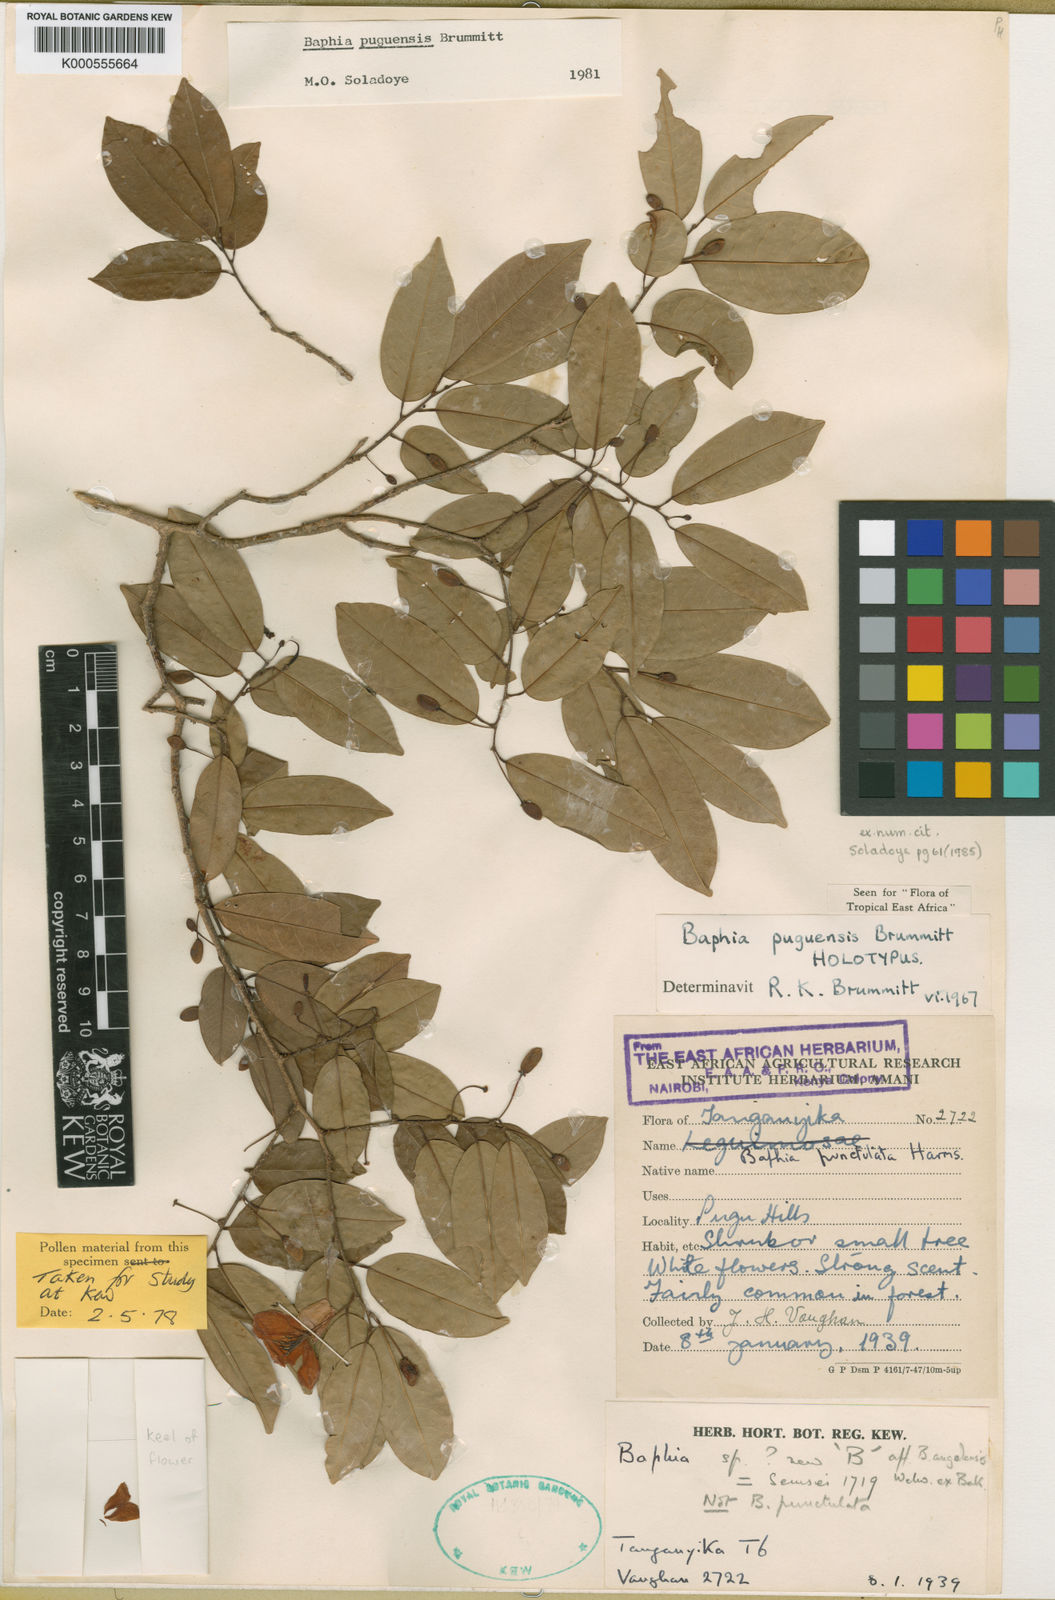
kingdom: Plantae
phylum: Tracheophyta
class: Magnoliopsida
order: Fabales
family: Fabaceae
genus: Baphia
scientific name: Baphia puguensis
